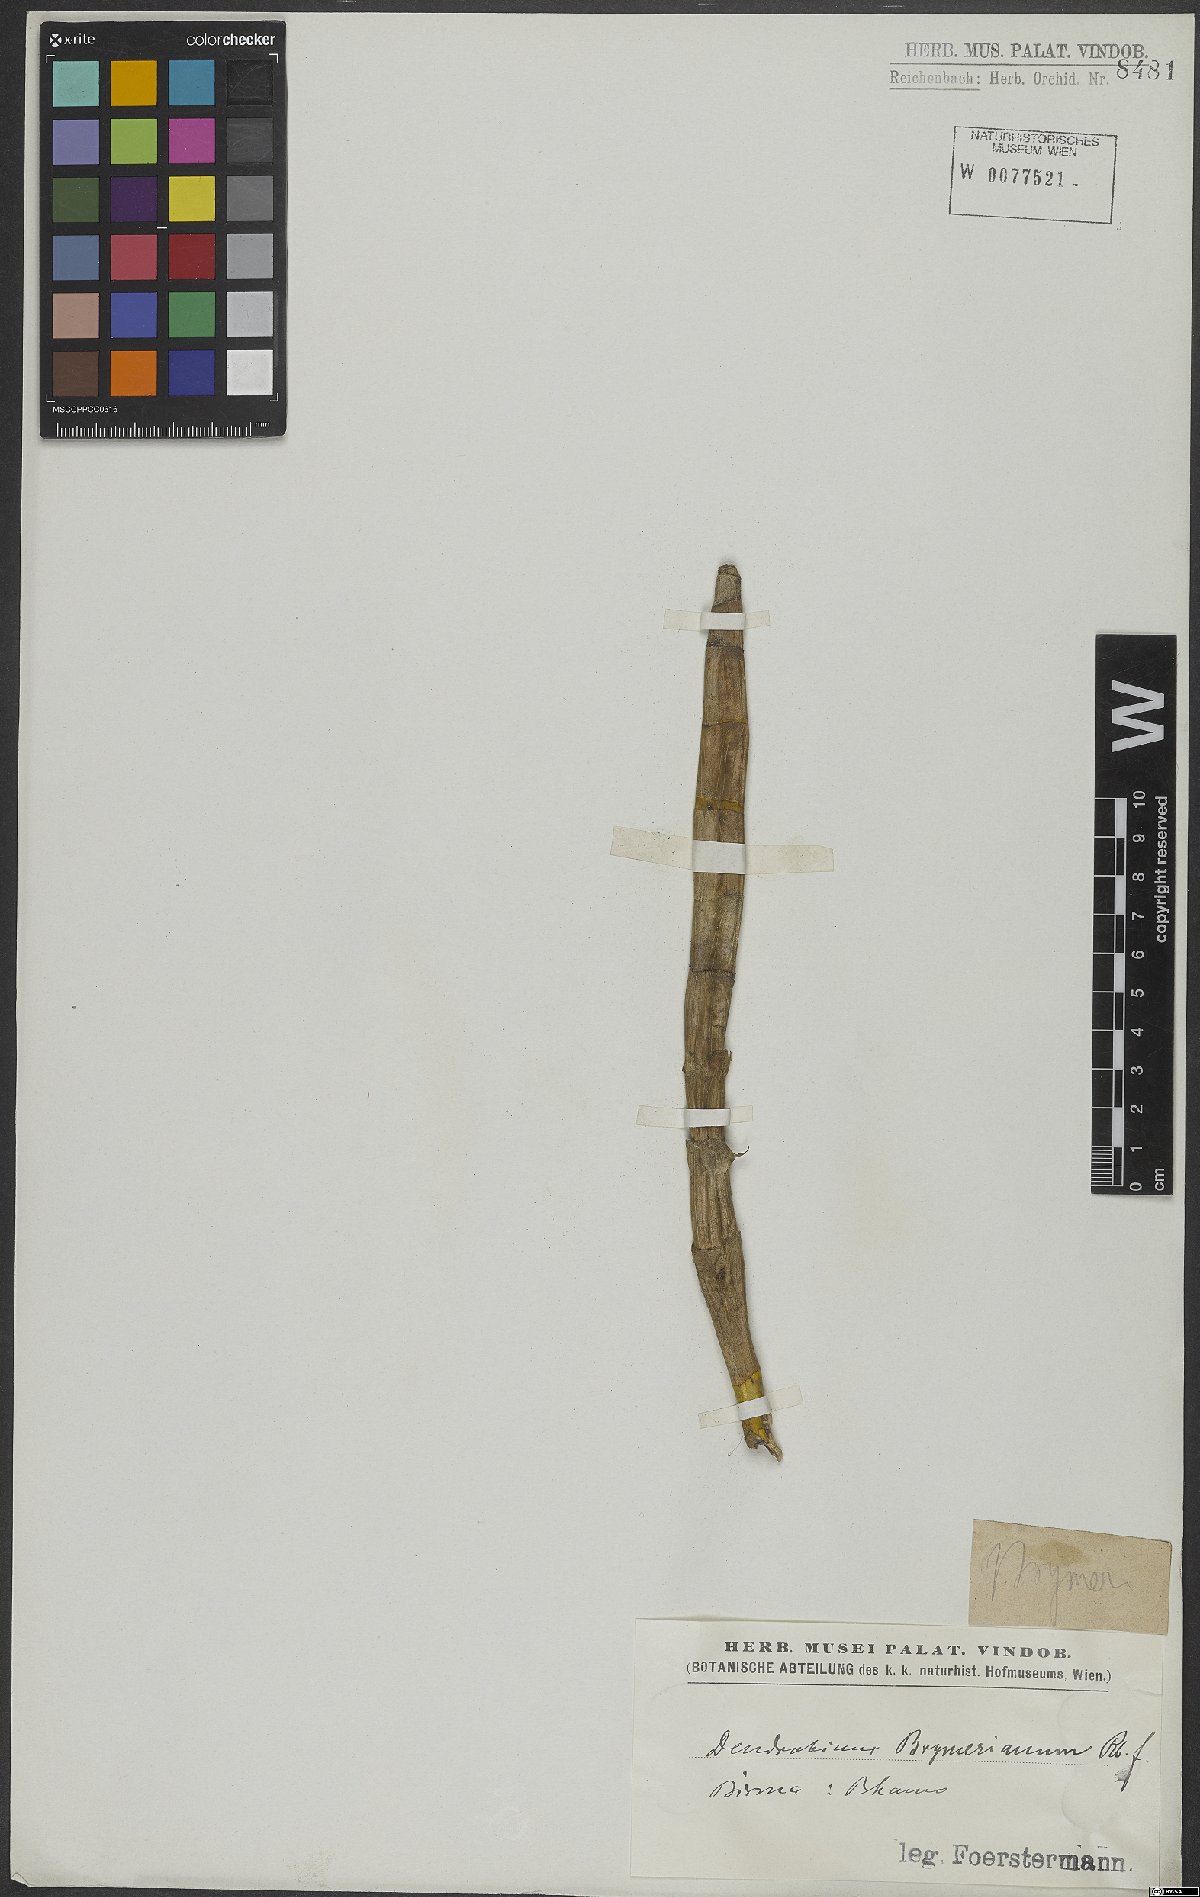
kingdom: Plantae
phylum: Tracheophyta
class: Liliopsida
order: Asparagales
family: Orchidaceae
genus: Dendrobium
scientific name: Dendrobium brymerianum
